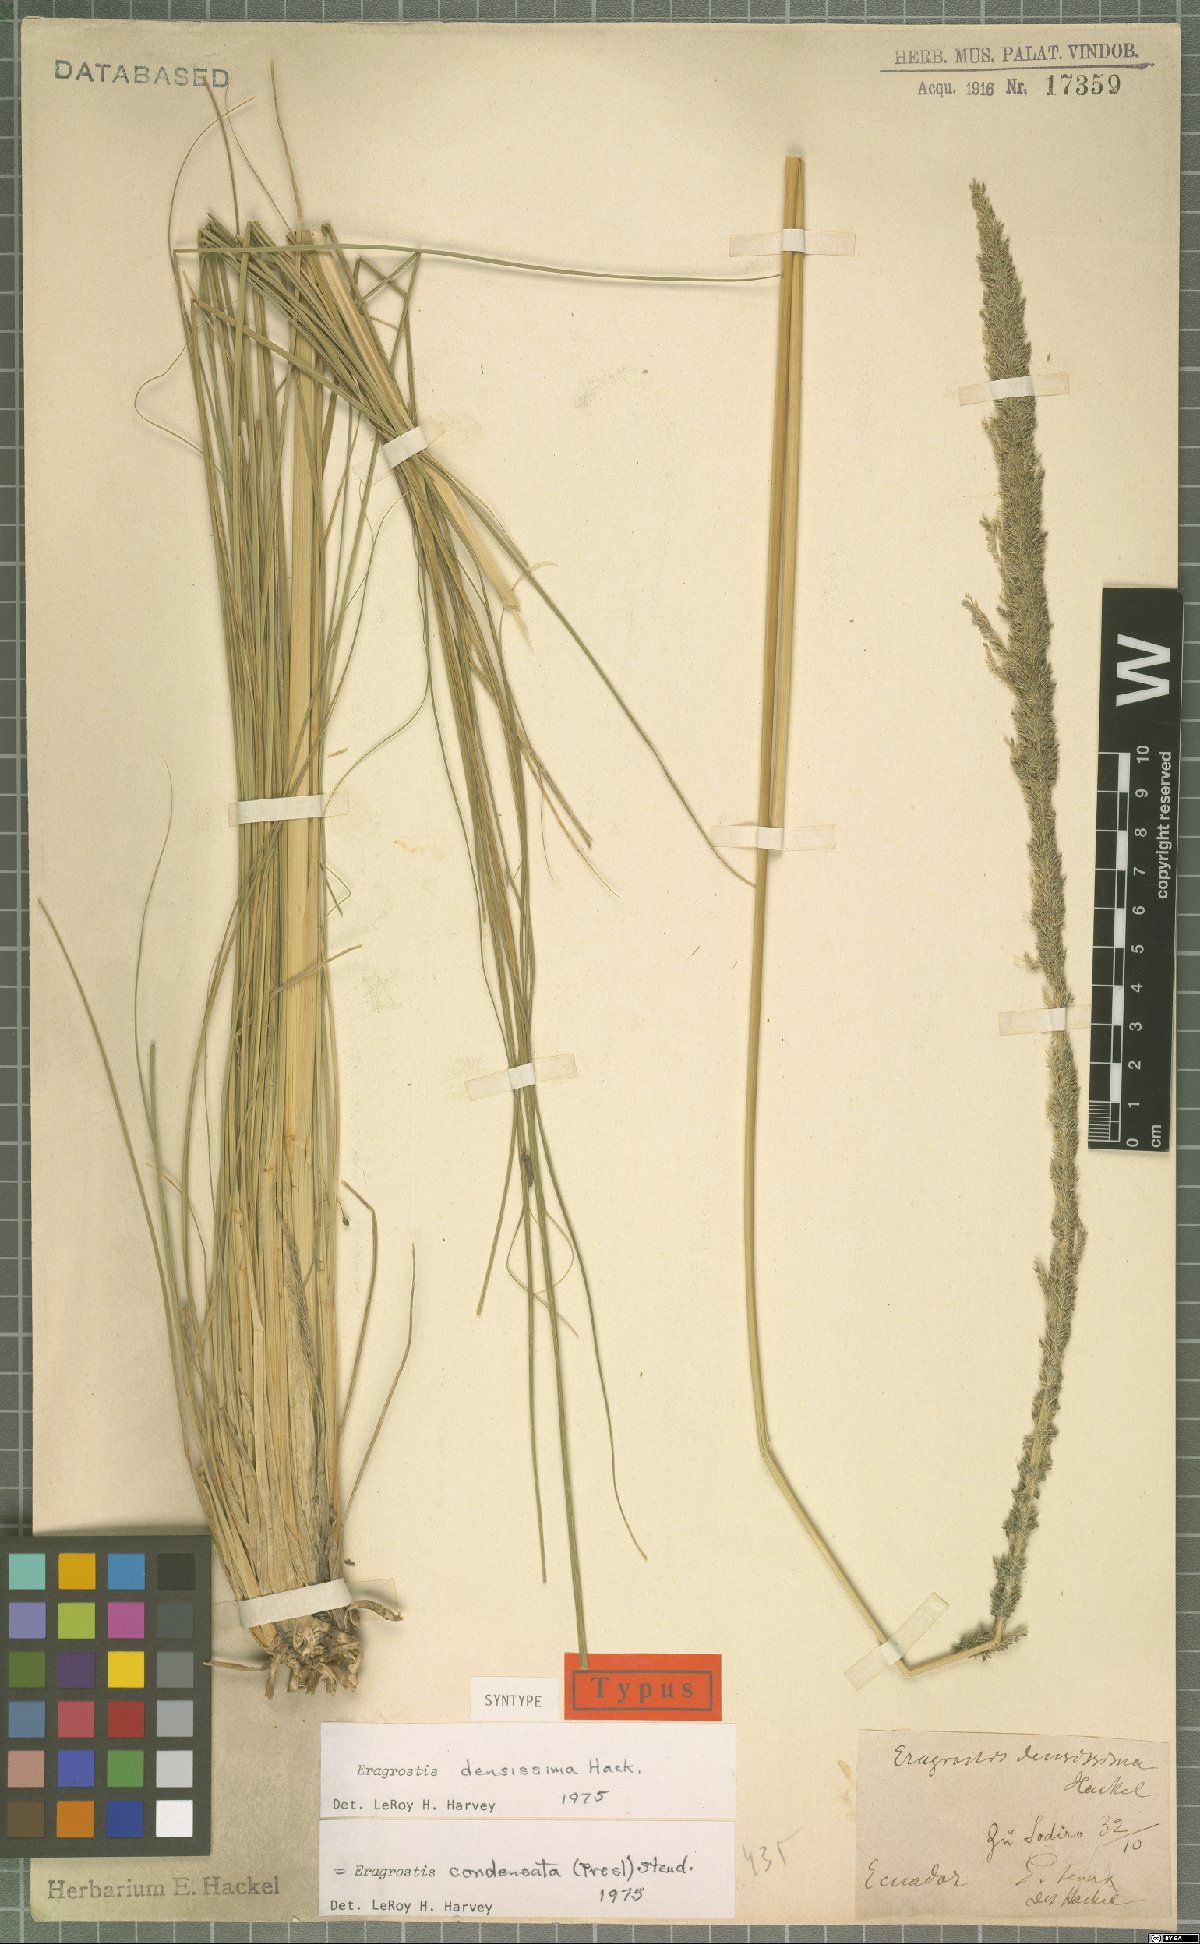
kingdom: Plantae
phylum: Tracheophyta
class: Liliopsida
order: Poales
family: Poaceae
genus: Eragrostis
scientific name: Eragrostis condensata
